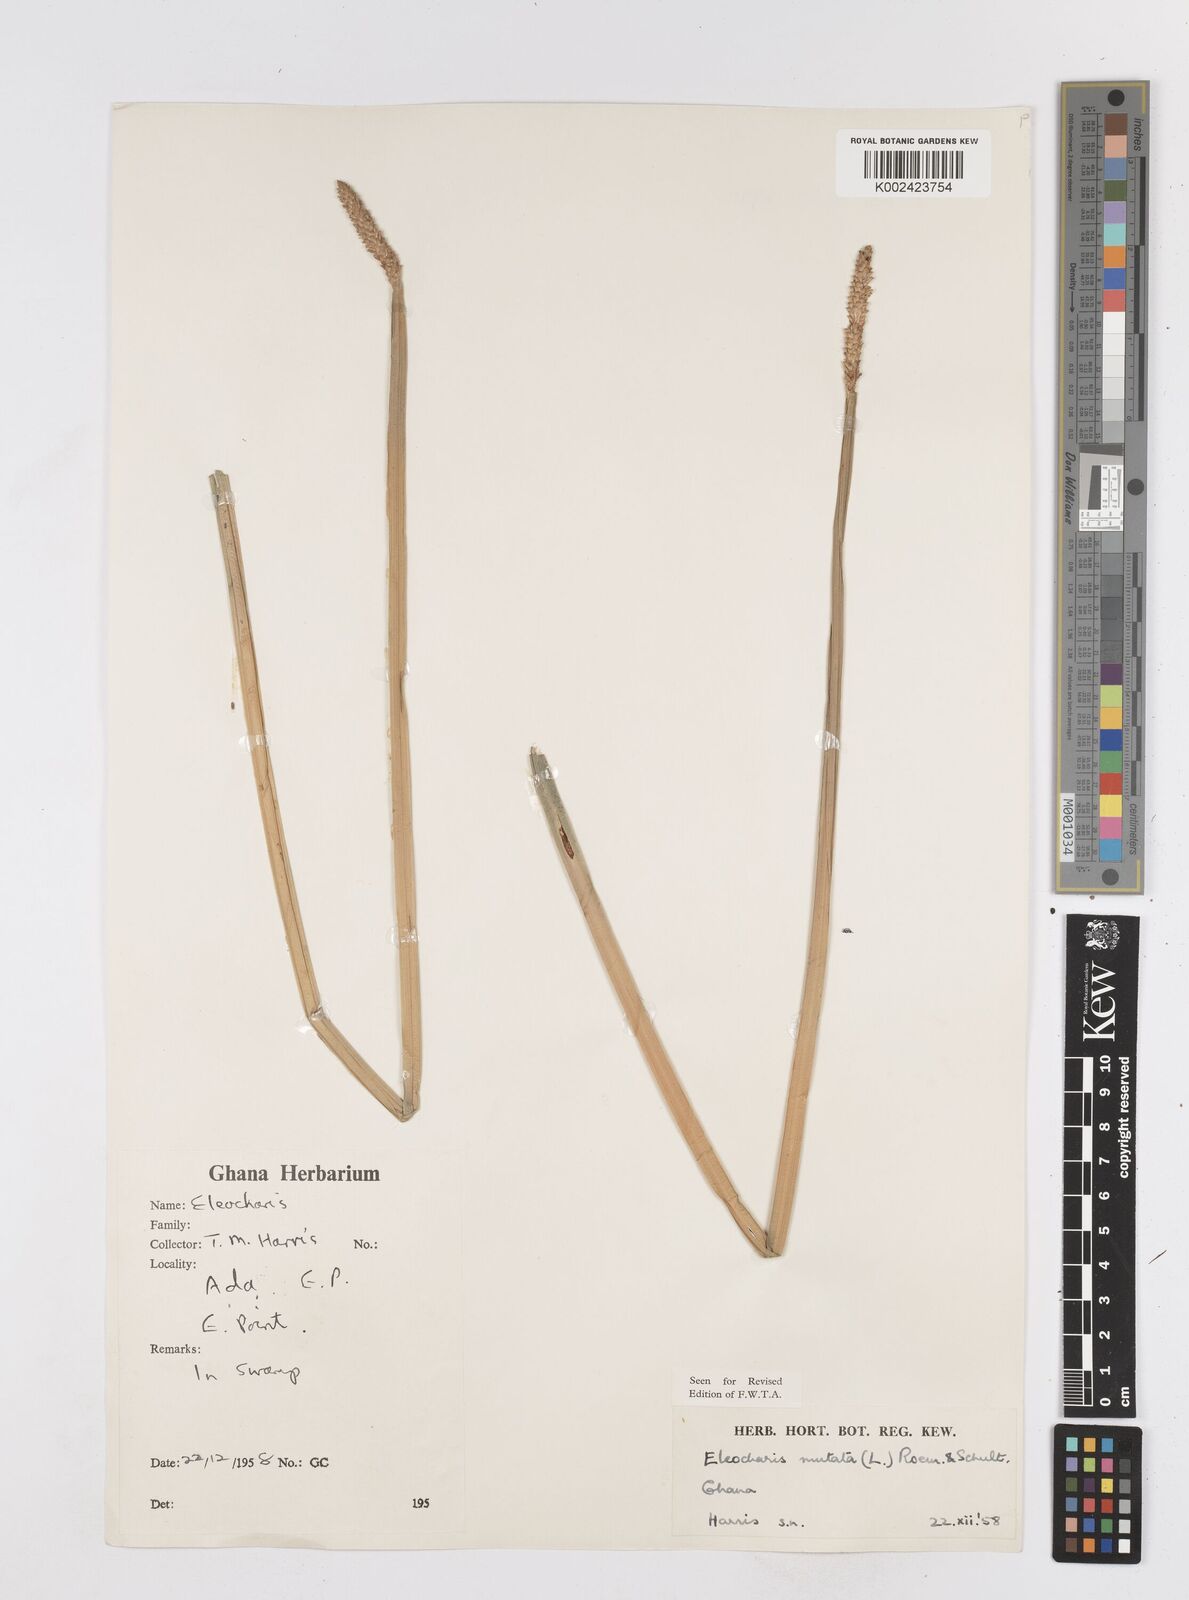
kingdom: Plantae
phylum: Tracheophyta
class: Liliopsida
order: Poales
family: Cyperaceae
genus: Eleocharis
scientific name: Eleocharis mutata
